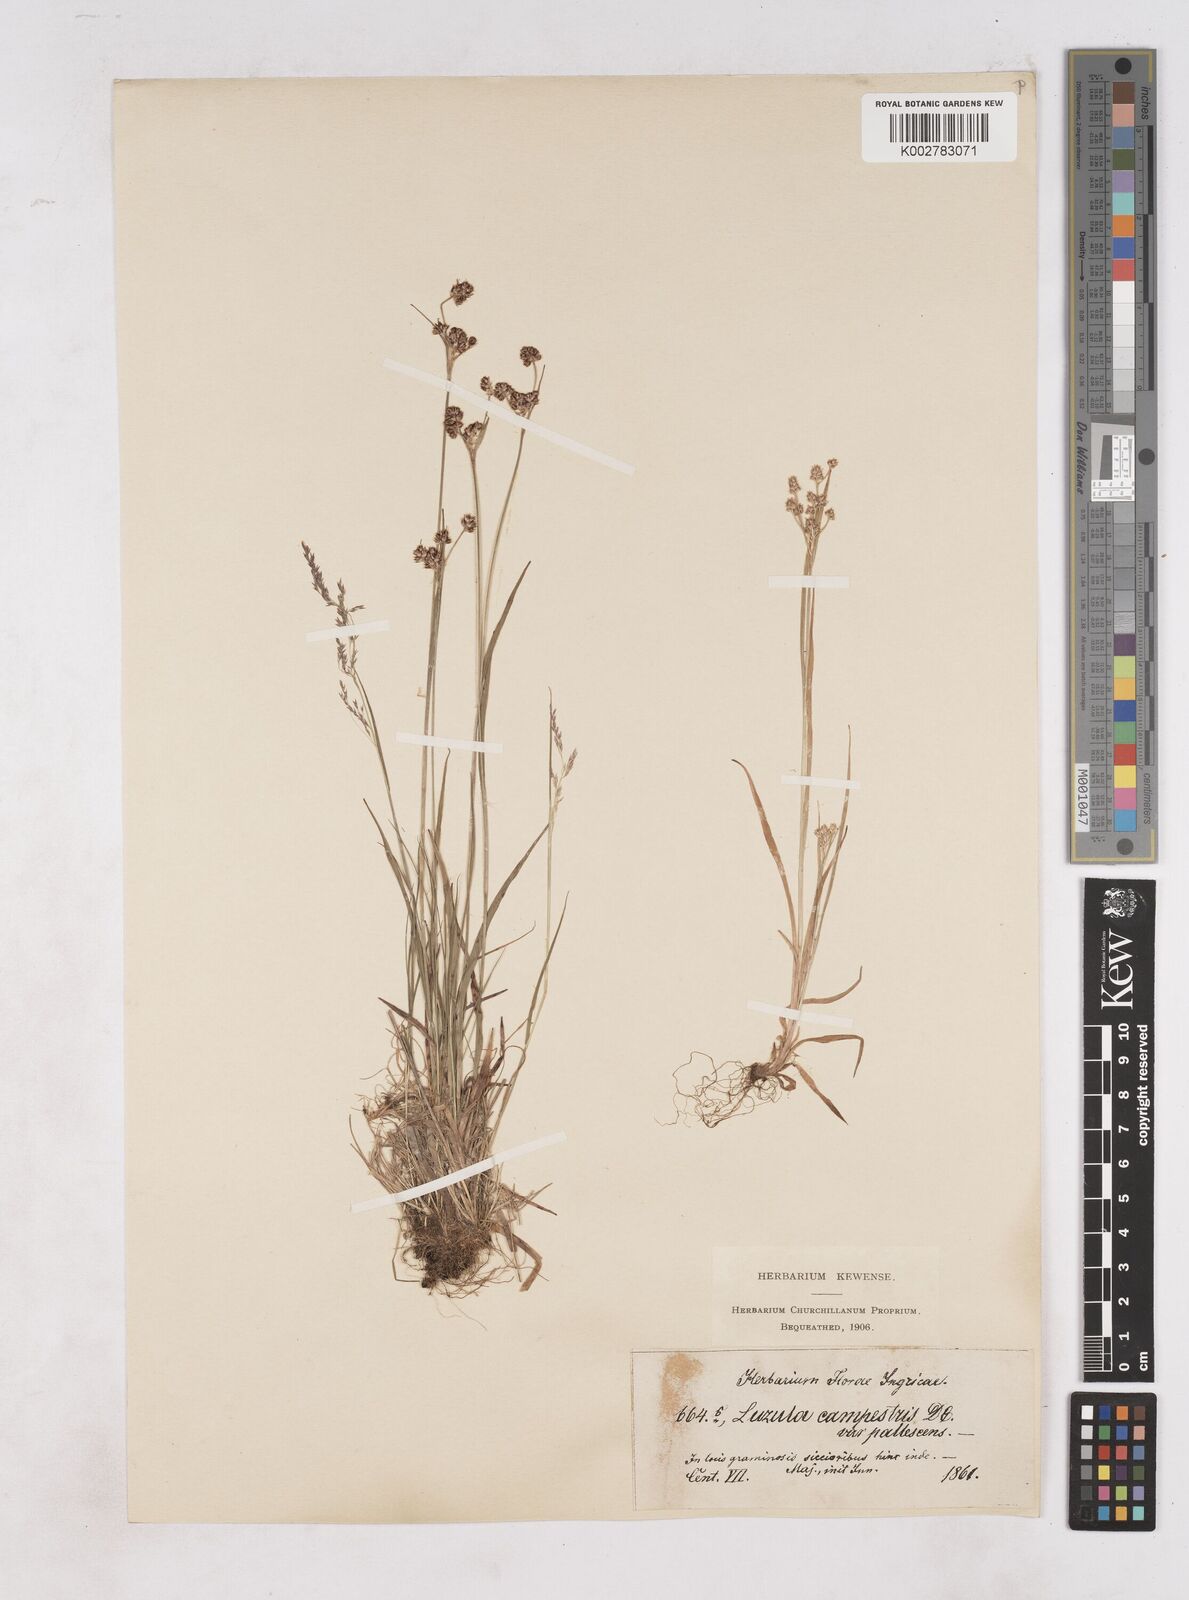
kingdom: Plantae
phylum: Tracheophyta
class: Liliopsida
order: Poales
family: Juncaceae
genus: Luzula
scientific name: Luzula pallescens
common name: Fen wood-rush
